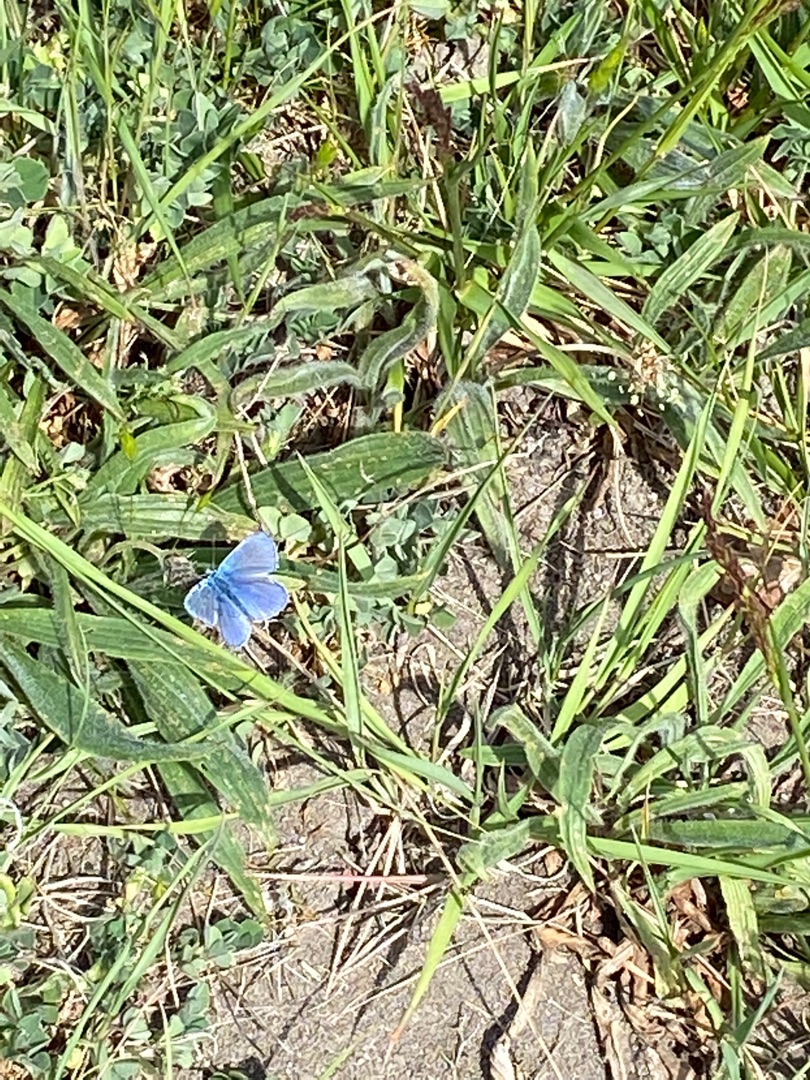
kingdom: Animalia
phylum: Arthropoda
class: Insecta
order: Lepidoptera
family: Lycaenidae
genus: Polyommatus
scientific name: Polyommatus icarus
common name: Almindelig blåfugl
